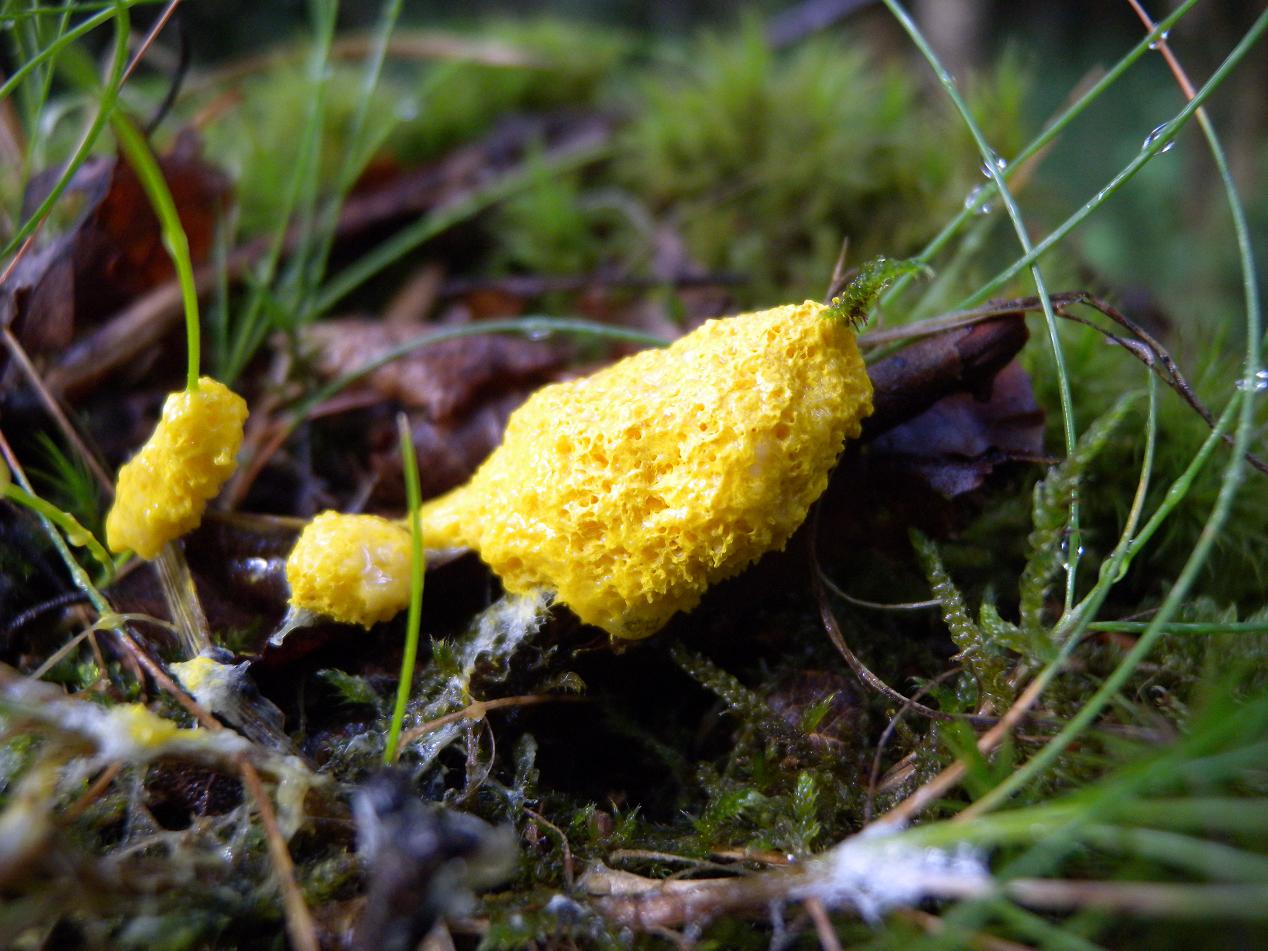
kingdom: Protozoa
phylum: Mycetozoa
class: Myxomycetes
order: Physarales
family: Physaraceae
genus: Fuligo
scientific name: Fuligo septica
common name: gul troldsmør
